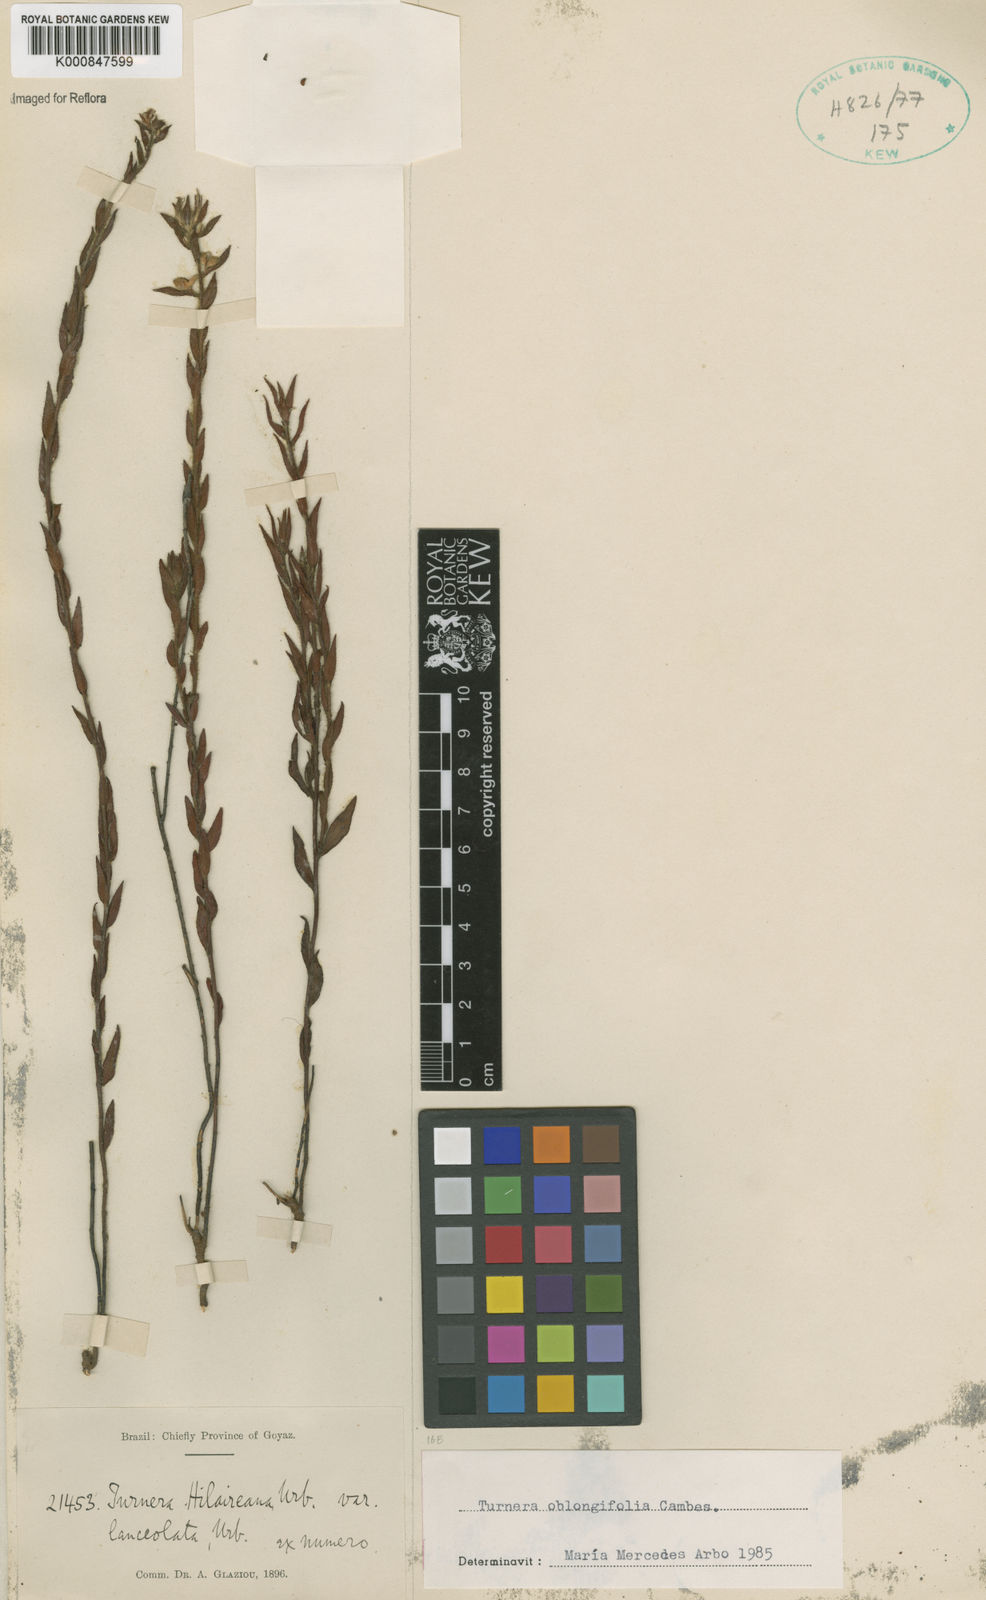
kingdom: Plantae
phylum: Tracheophyta
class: Magnoliopsida
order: Malpighiales
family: Turneraceae
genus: Turnera
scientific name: Turnera oblongifolia
